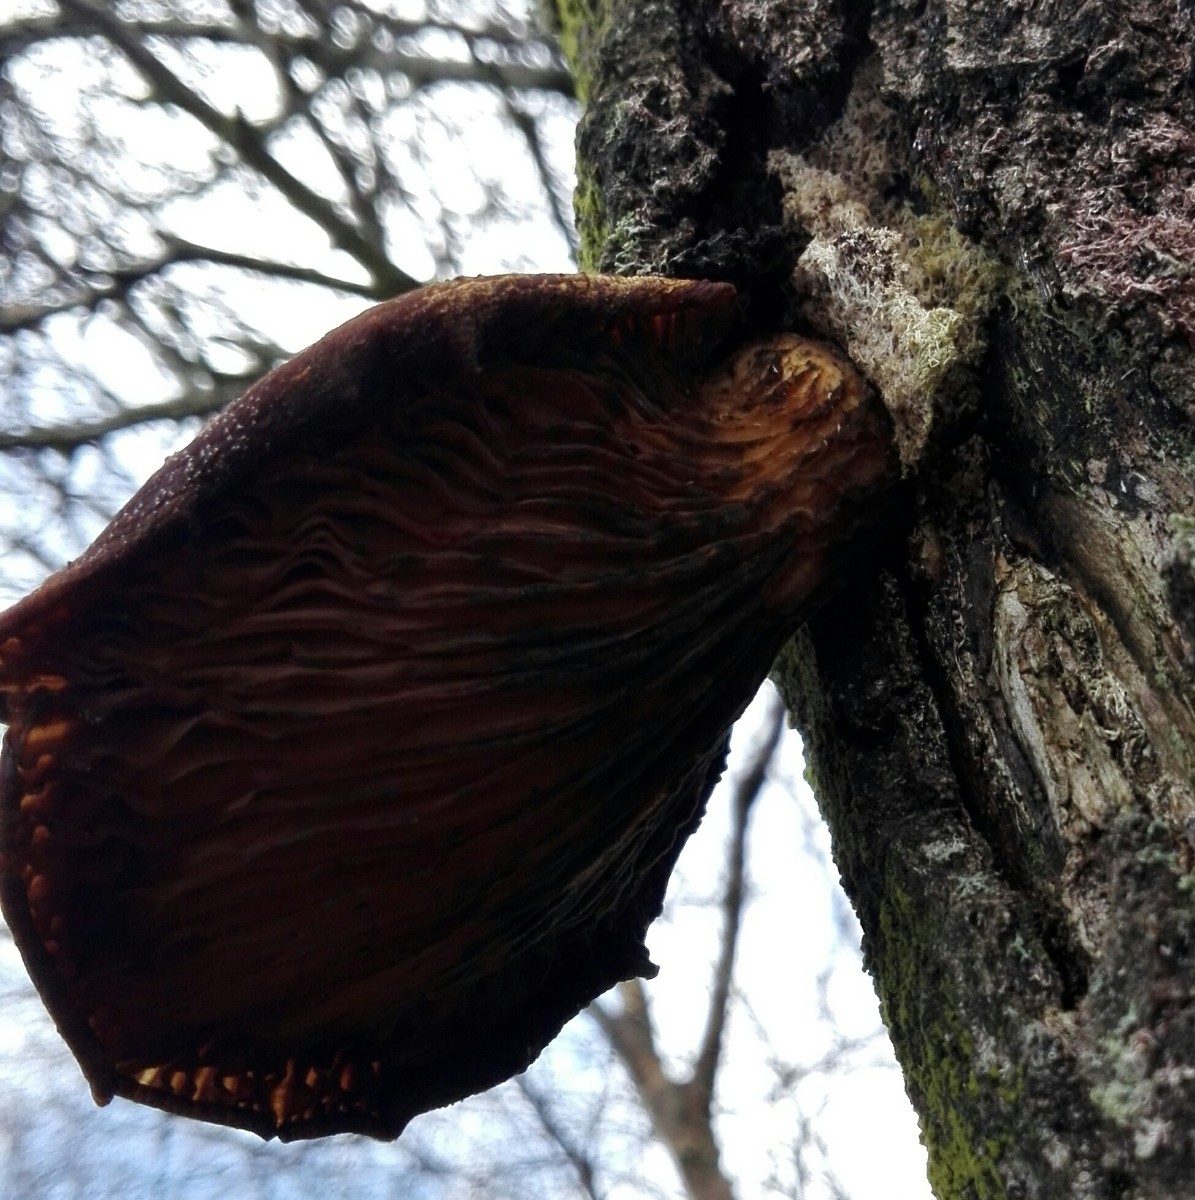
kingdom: Fungi
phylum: Basidiomycota
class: Agaricomycetes
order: Agaricales
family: Pleurotaceae
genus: Pleurotus
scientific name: Pleurotus
